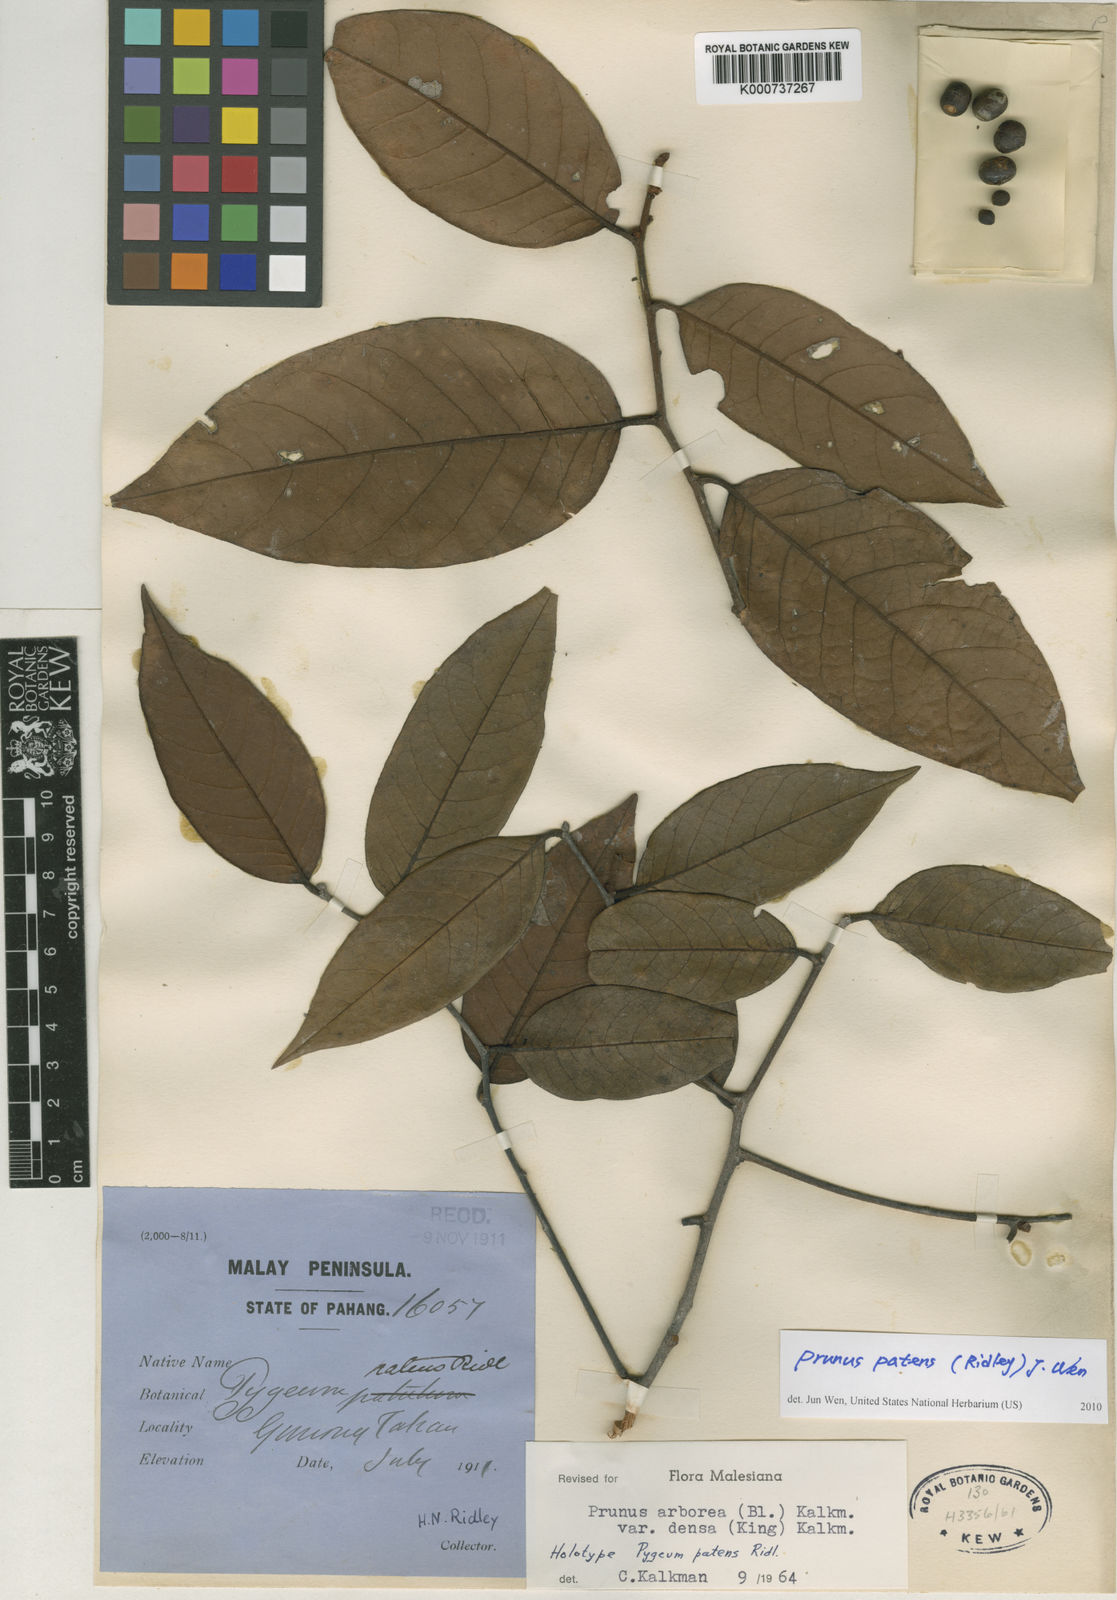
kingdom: Plantae
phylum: Tracheophyta
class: Magnoliopsida
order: Rosales
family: Rosaceae
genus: Prunus
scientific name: Prunus
